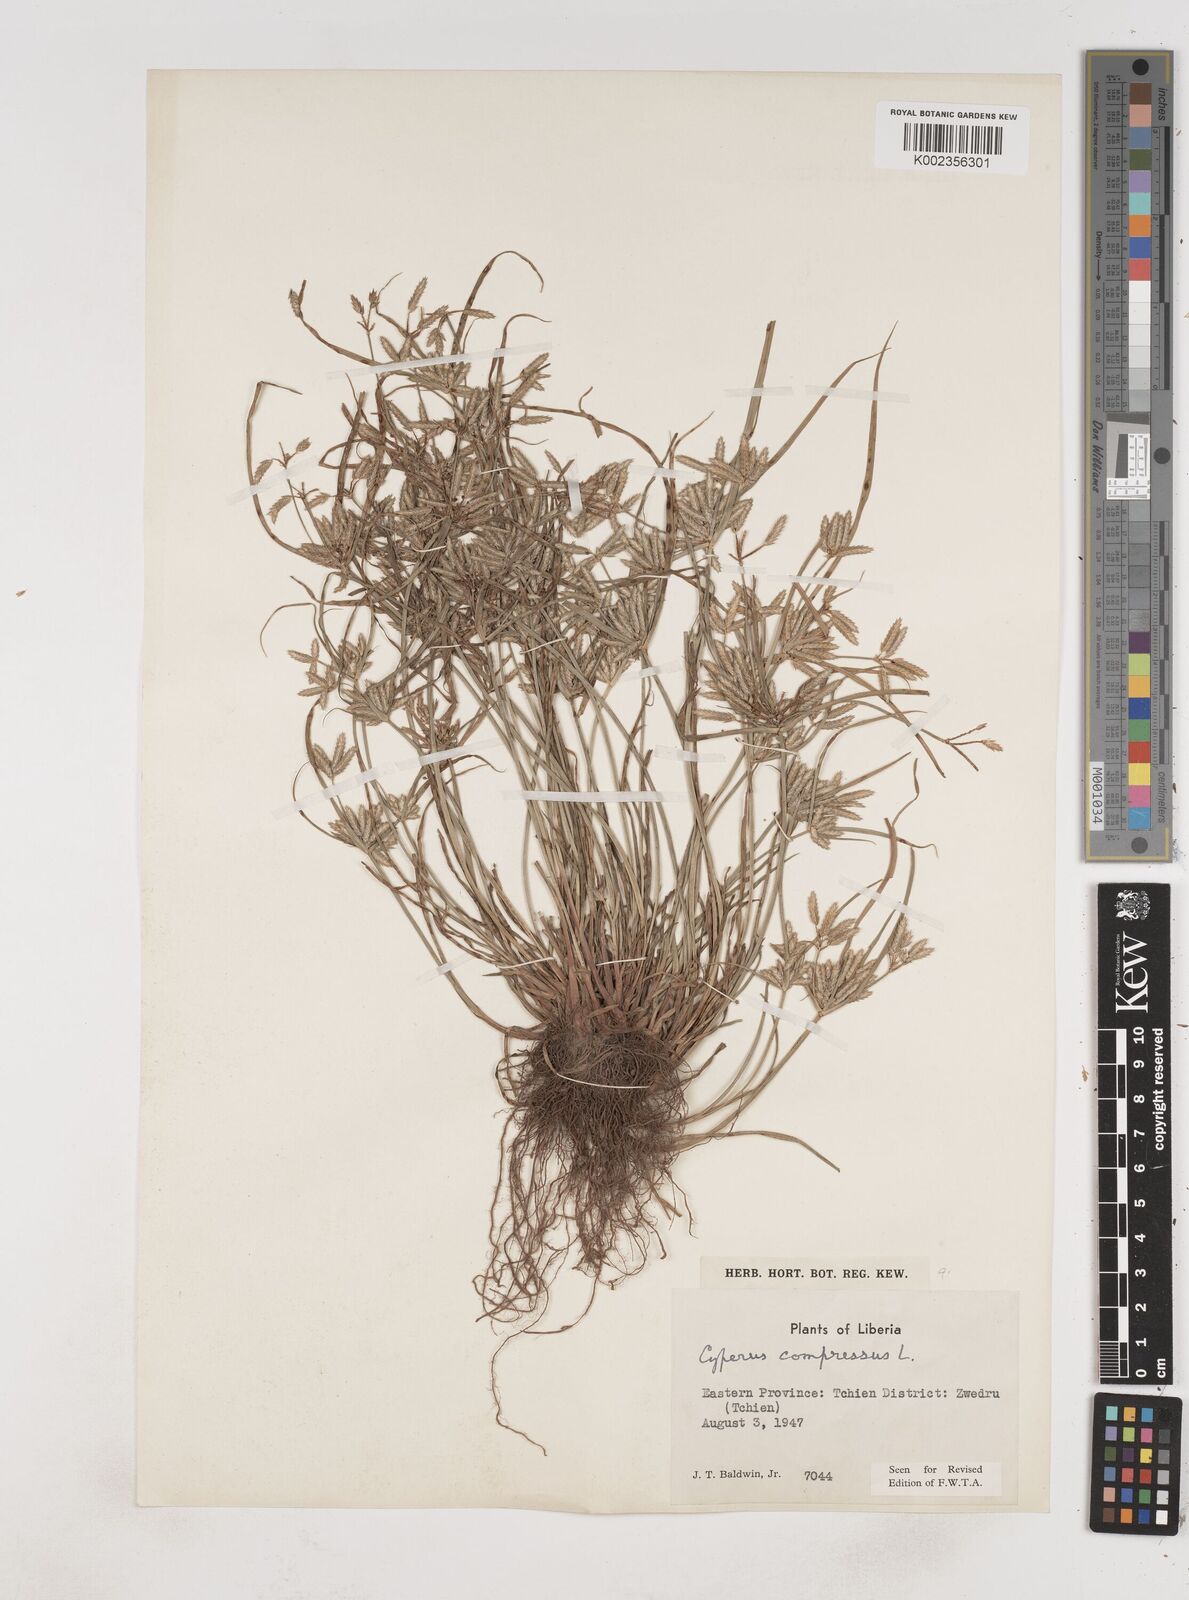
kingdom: Plantae
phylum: Tracheophyta
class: Liliopsida
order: Poales
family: Cyperaceae
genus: Cyperus
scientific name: Cyperus compressus
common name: Poorland flatsedge
